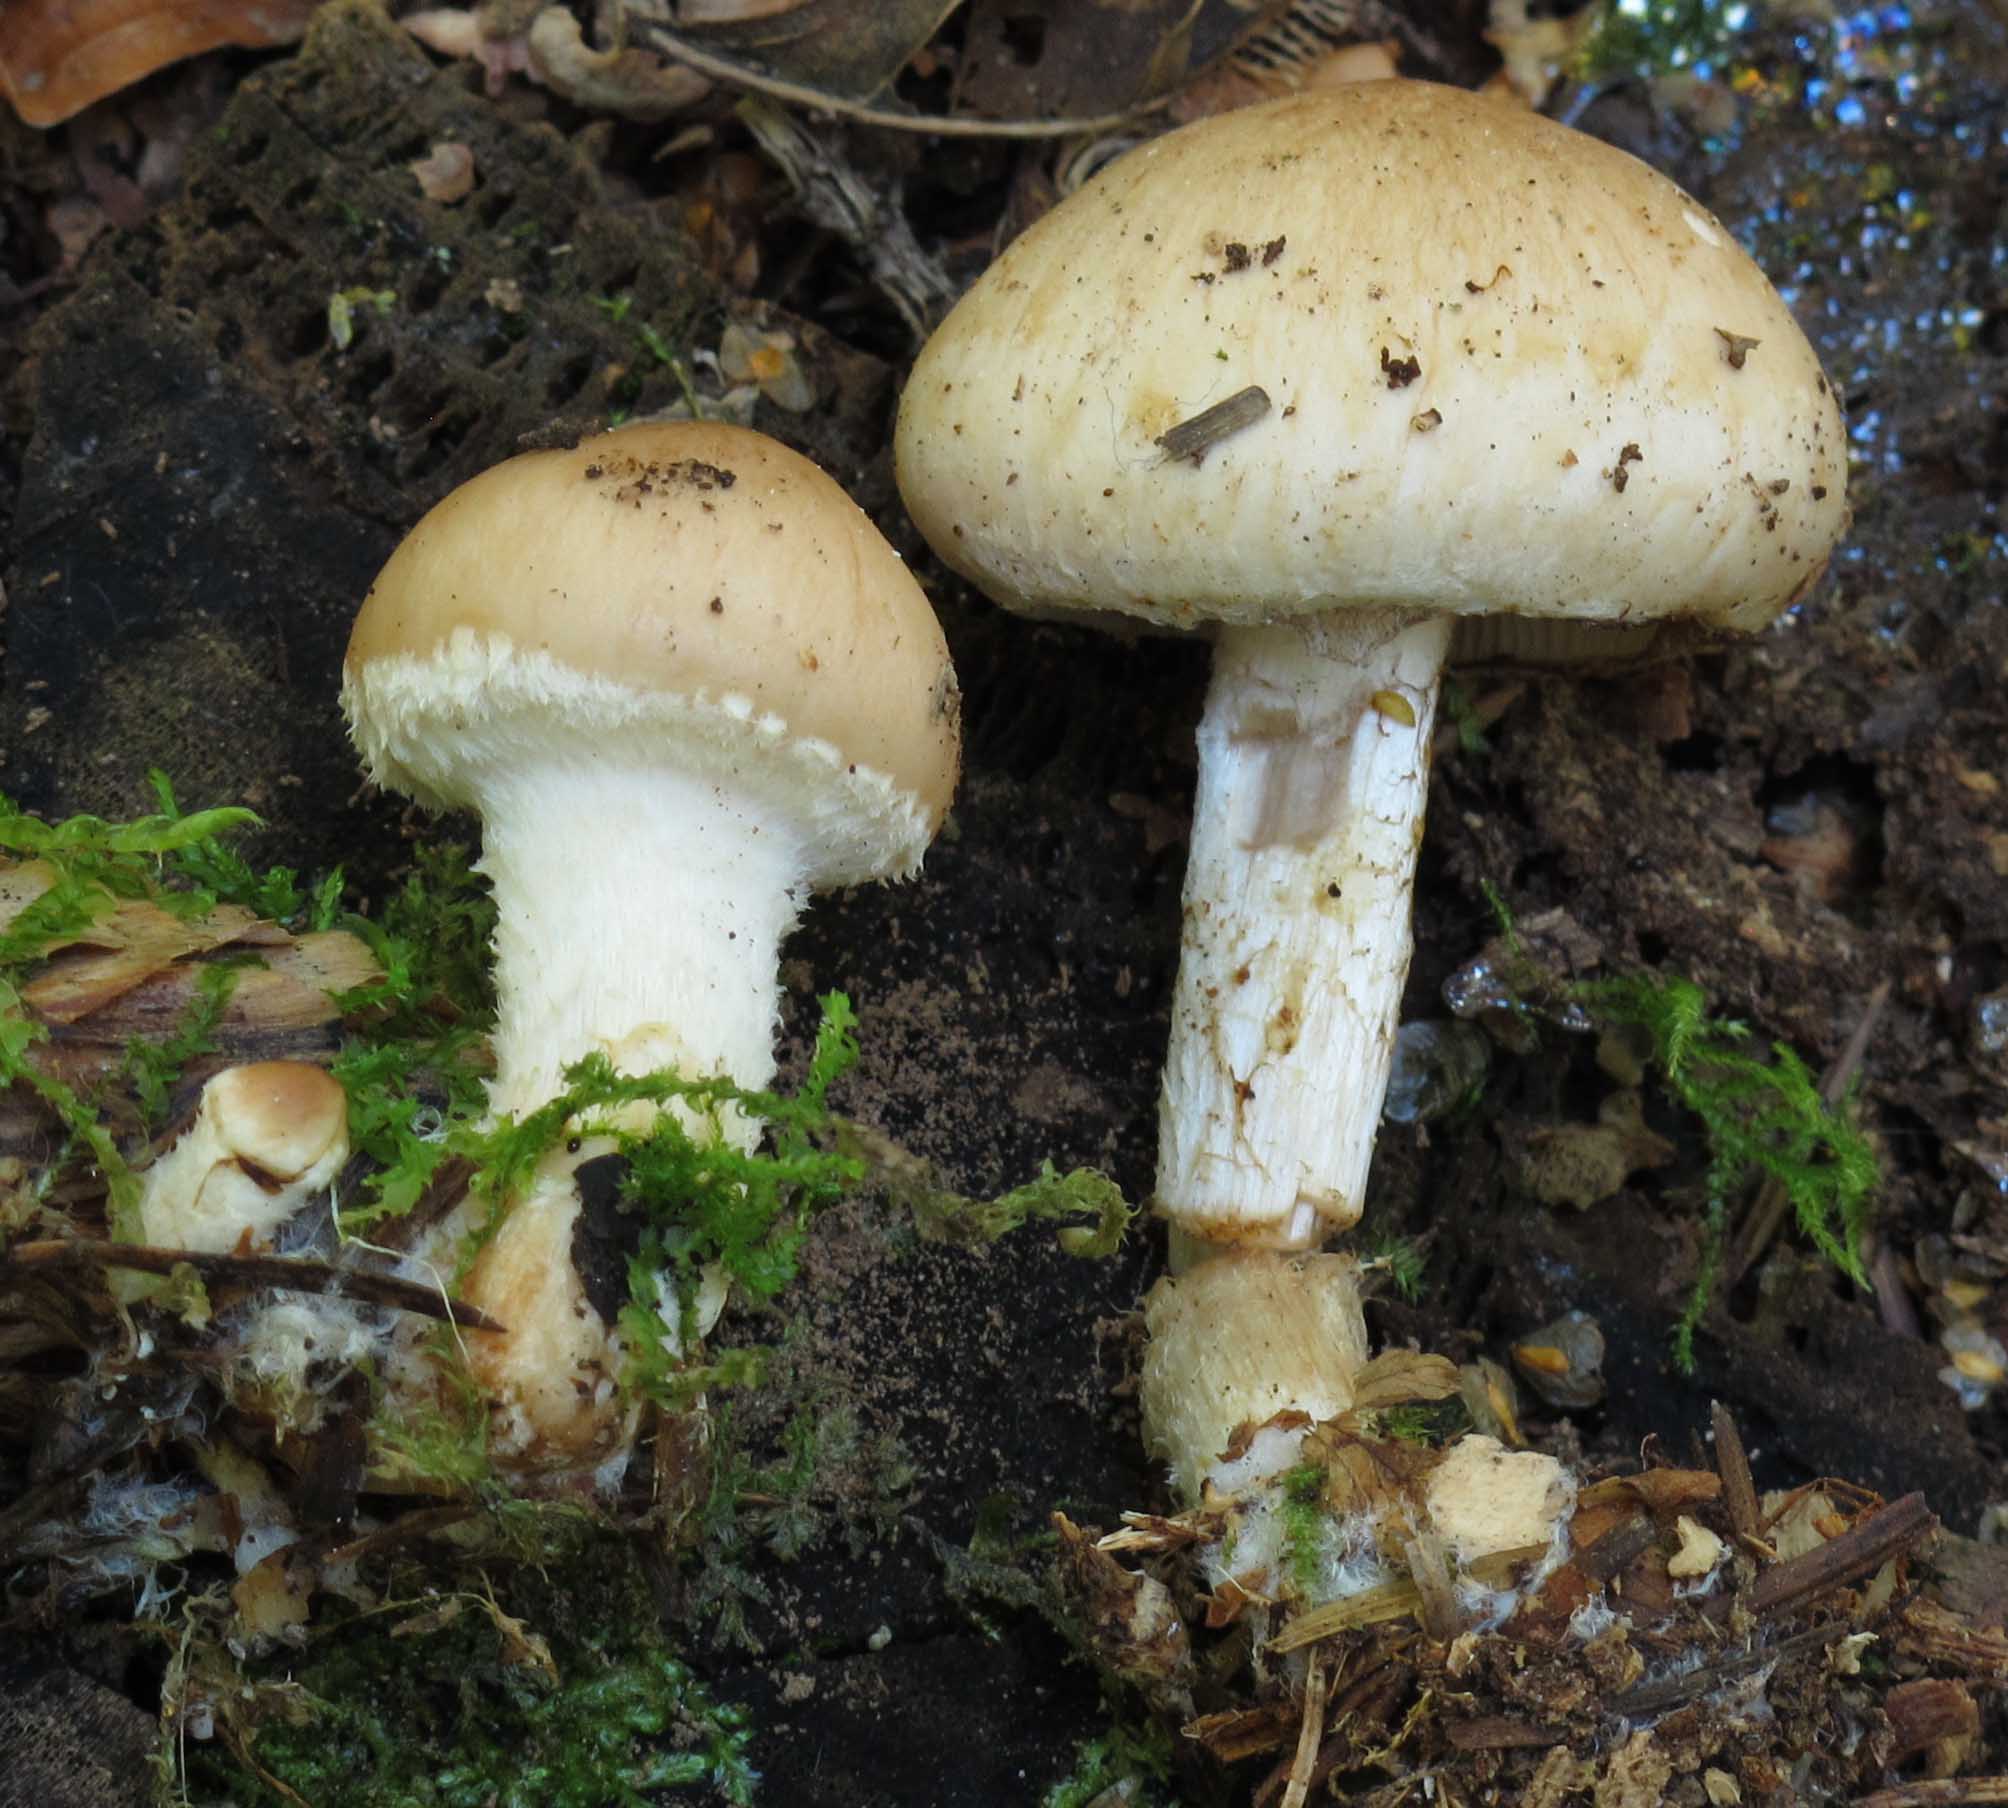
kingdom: Fungi
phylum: Basidiomycota
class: Agaricomycetes
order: Agaricales
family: Strophariaceae
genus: Pholiota
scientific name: Pholiota lenta
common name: løv-skælhat
